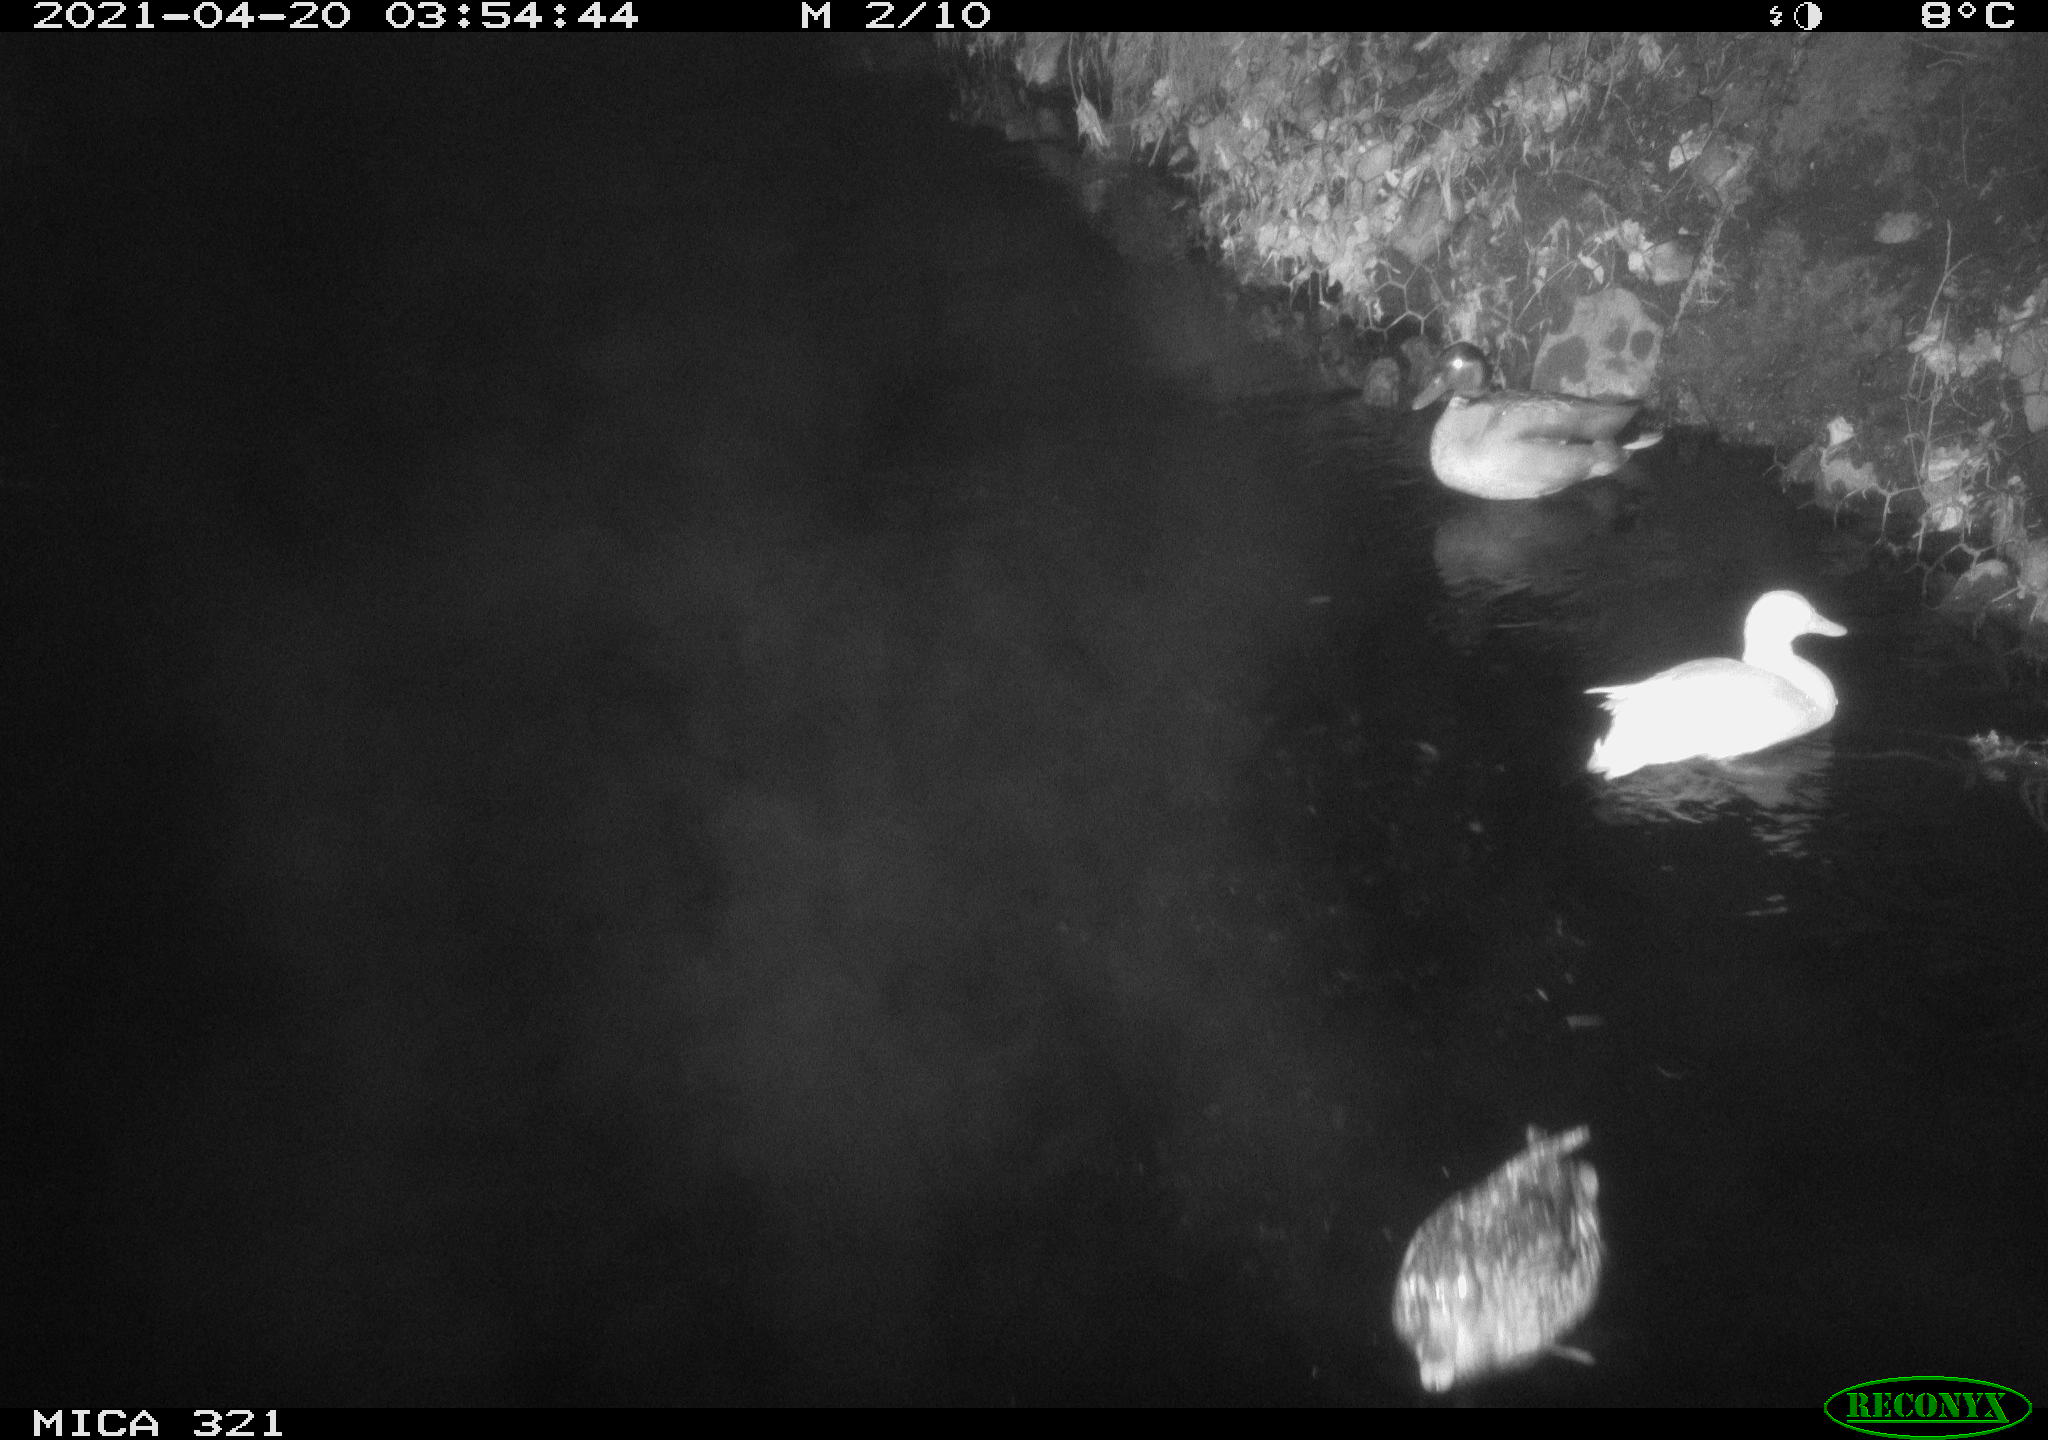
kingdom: Animalia
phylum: Chordata
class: Aves
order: Anseriformes
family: Anatidae
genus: Anas
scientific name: Anas
